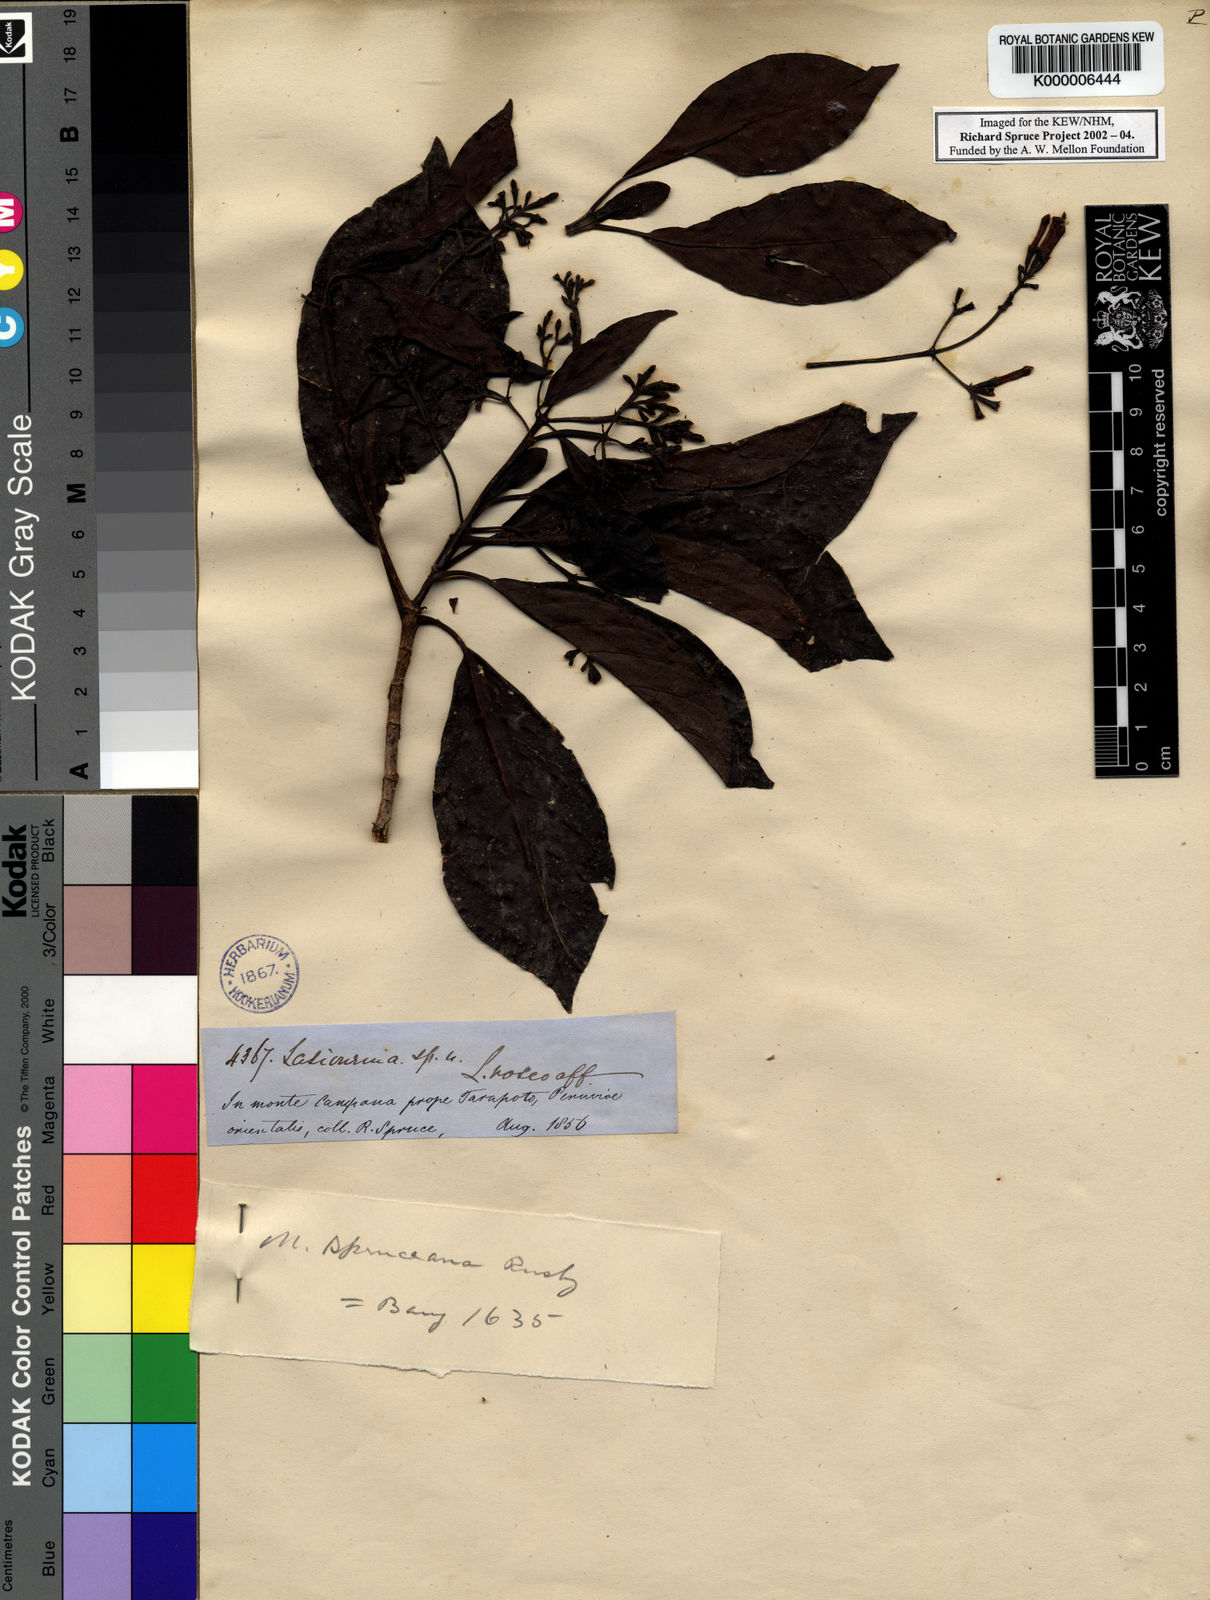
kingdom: Plantae
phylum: Tracheophyta
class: Magnoliopsida
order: Gentianales
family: Rubiaceae
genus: Macrocnemum
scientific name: Macrocnemum roseum
